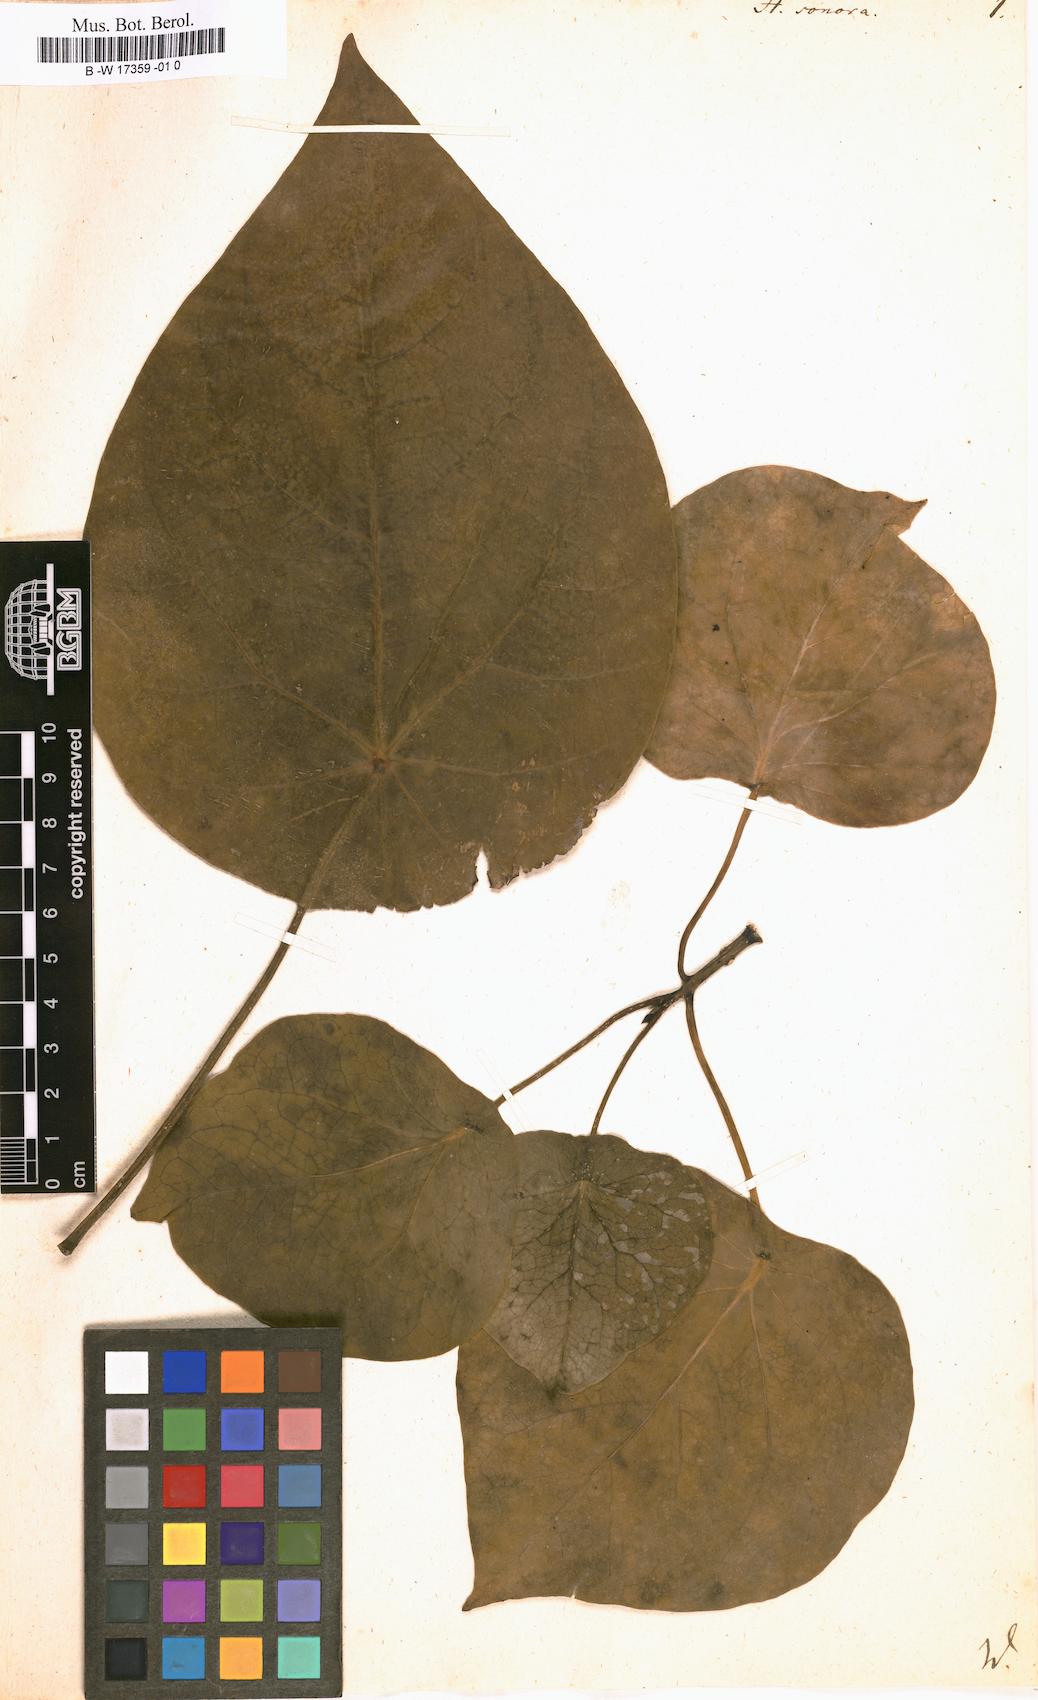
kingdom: Plantae
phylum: Tracheophyta
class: Magnoliopsida
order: Laurales
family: Hernandiaceae
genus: Hernandia
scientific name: Hernandia sonora
